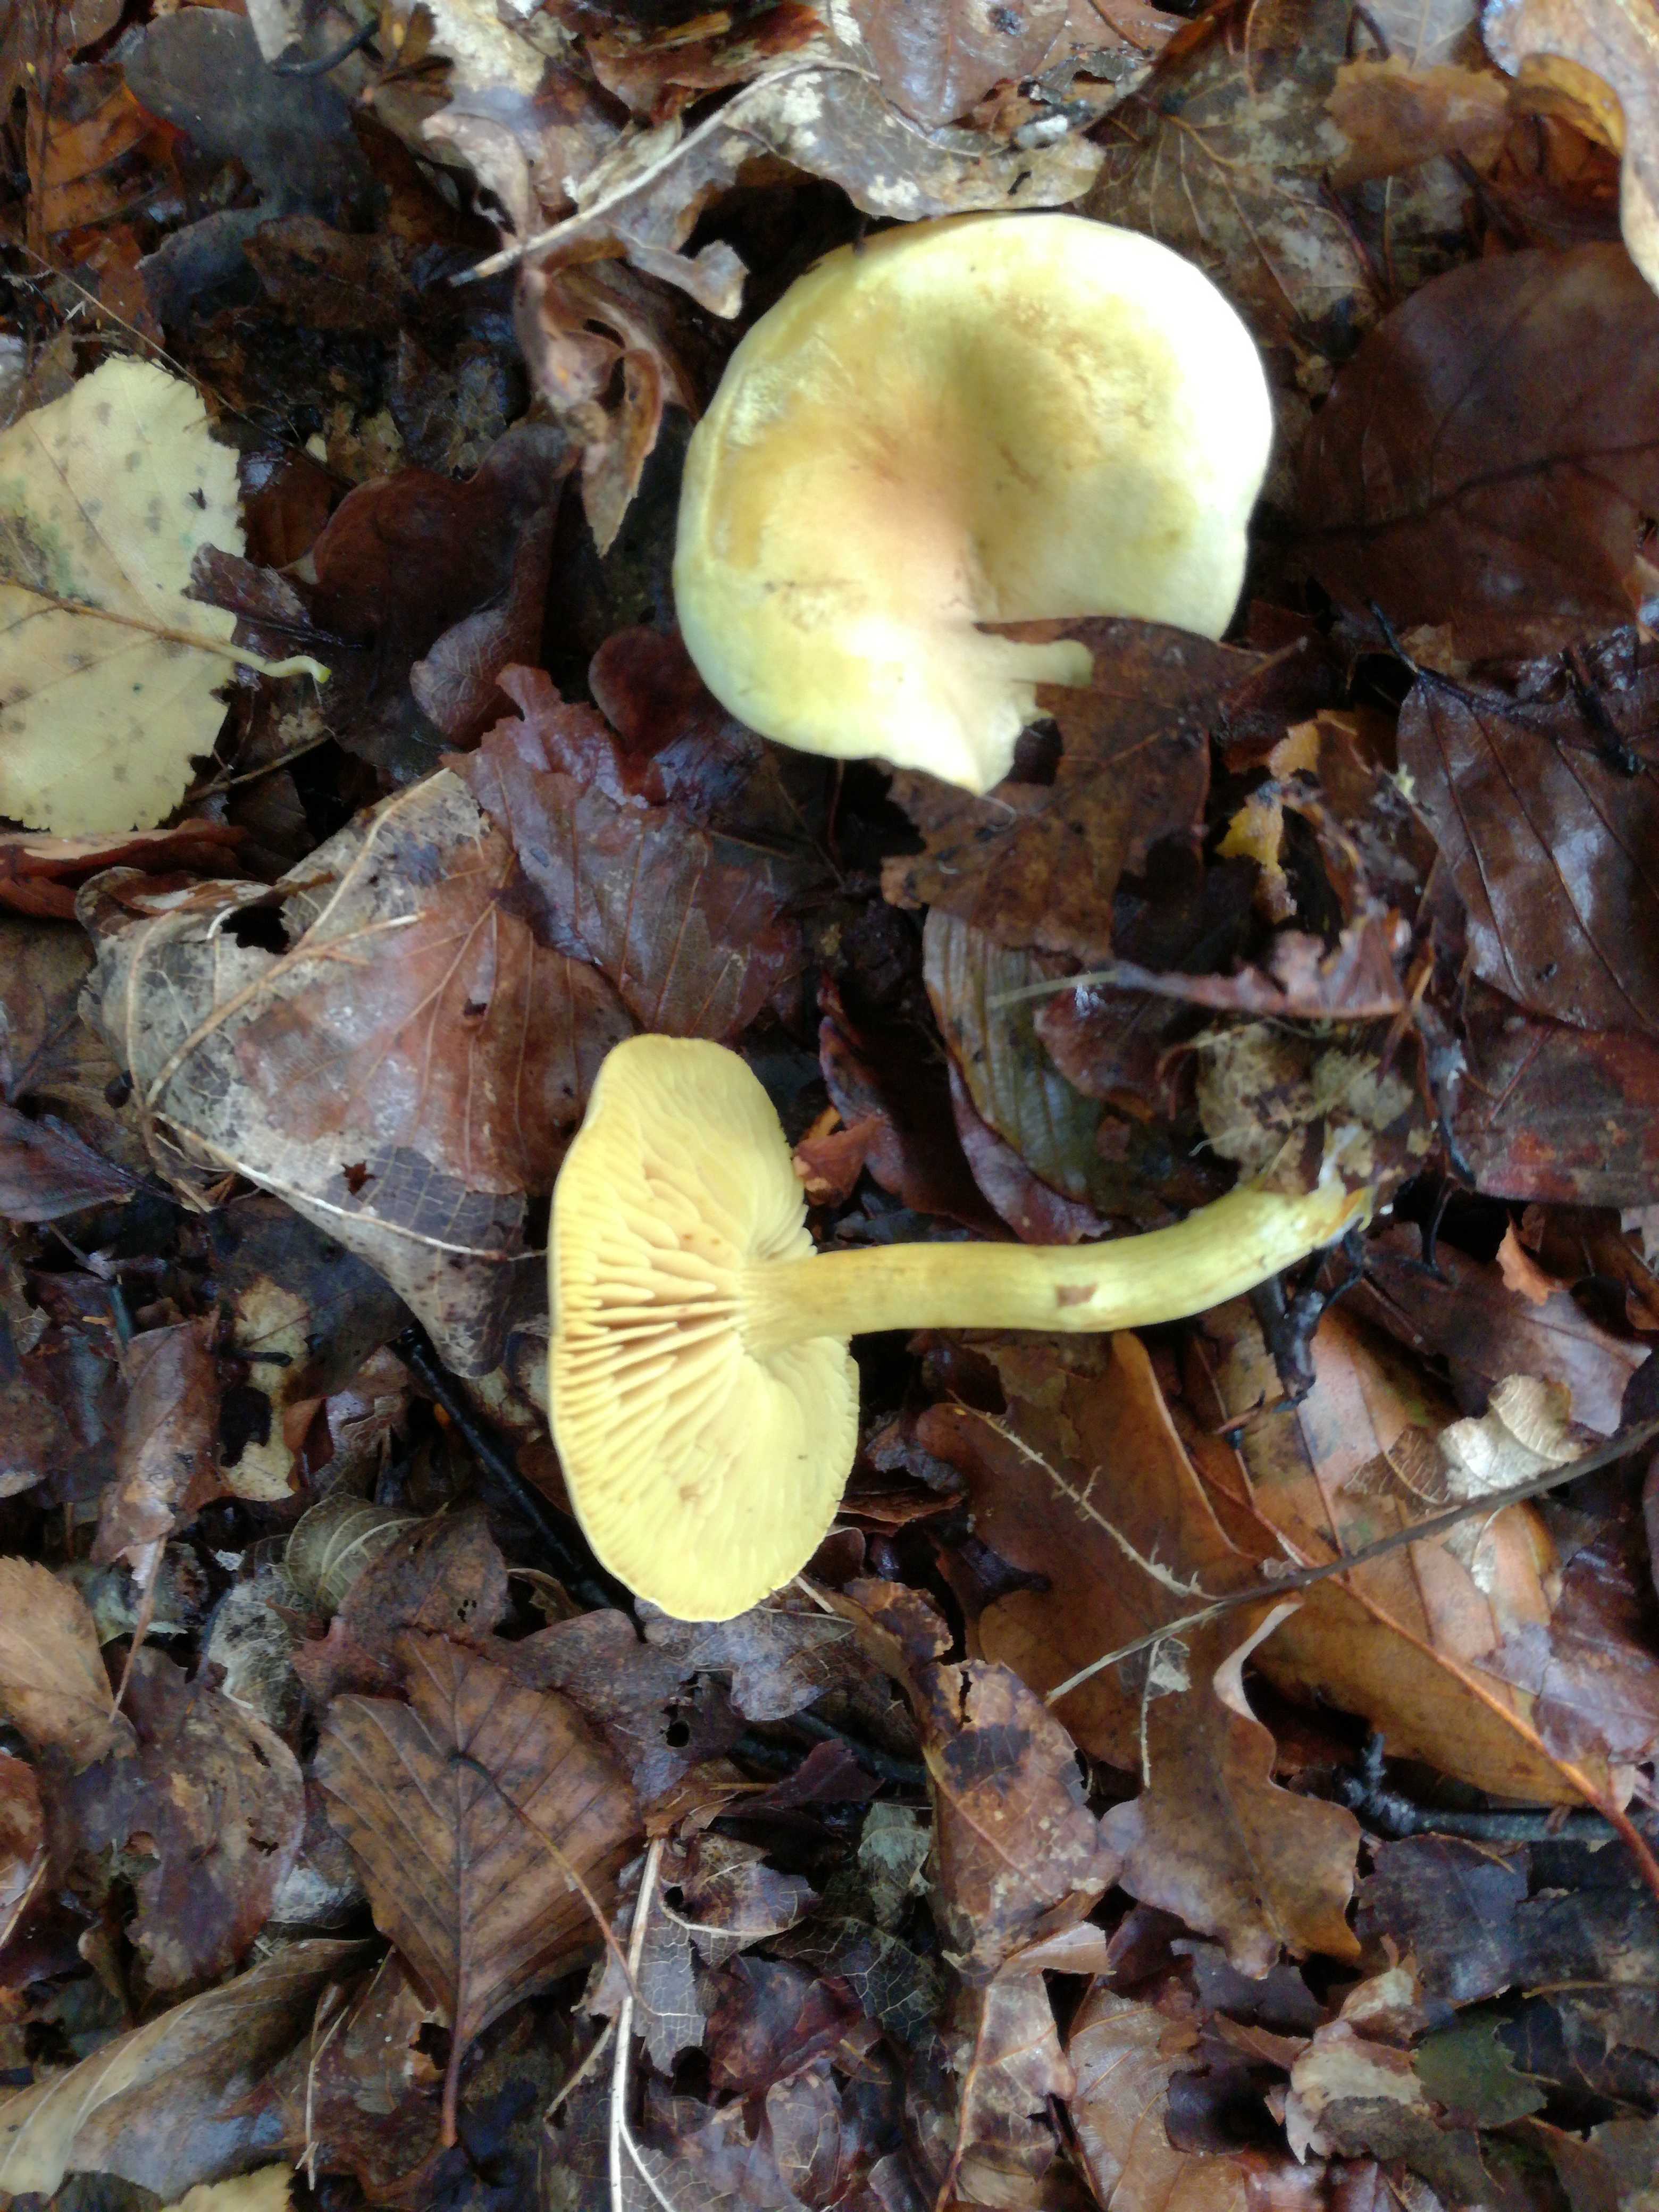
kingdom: Fungi
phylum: Basidiomycota
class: Agaricomycetes
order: Agaricales
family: Tricholomataceae
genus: Tricholoma
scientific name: Tricholoma sulphureum
